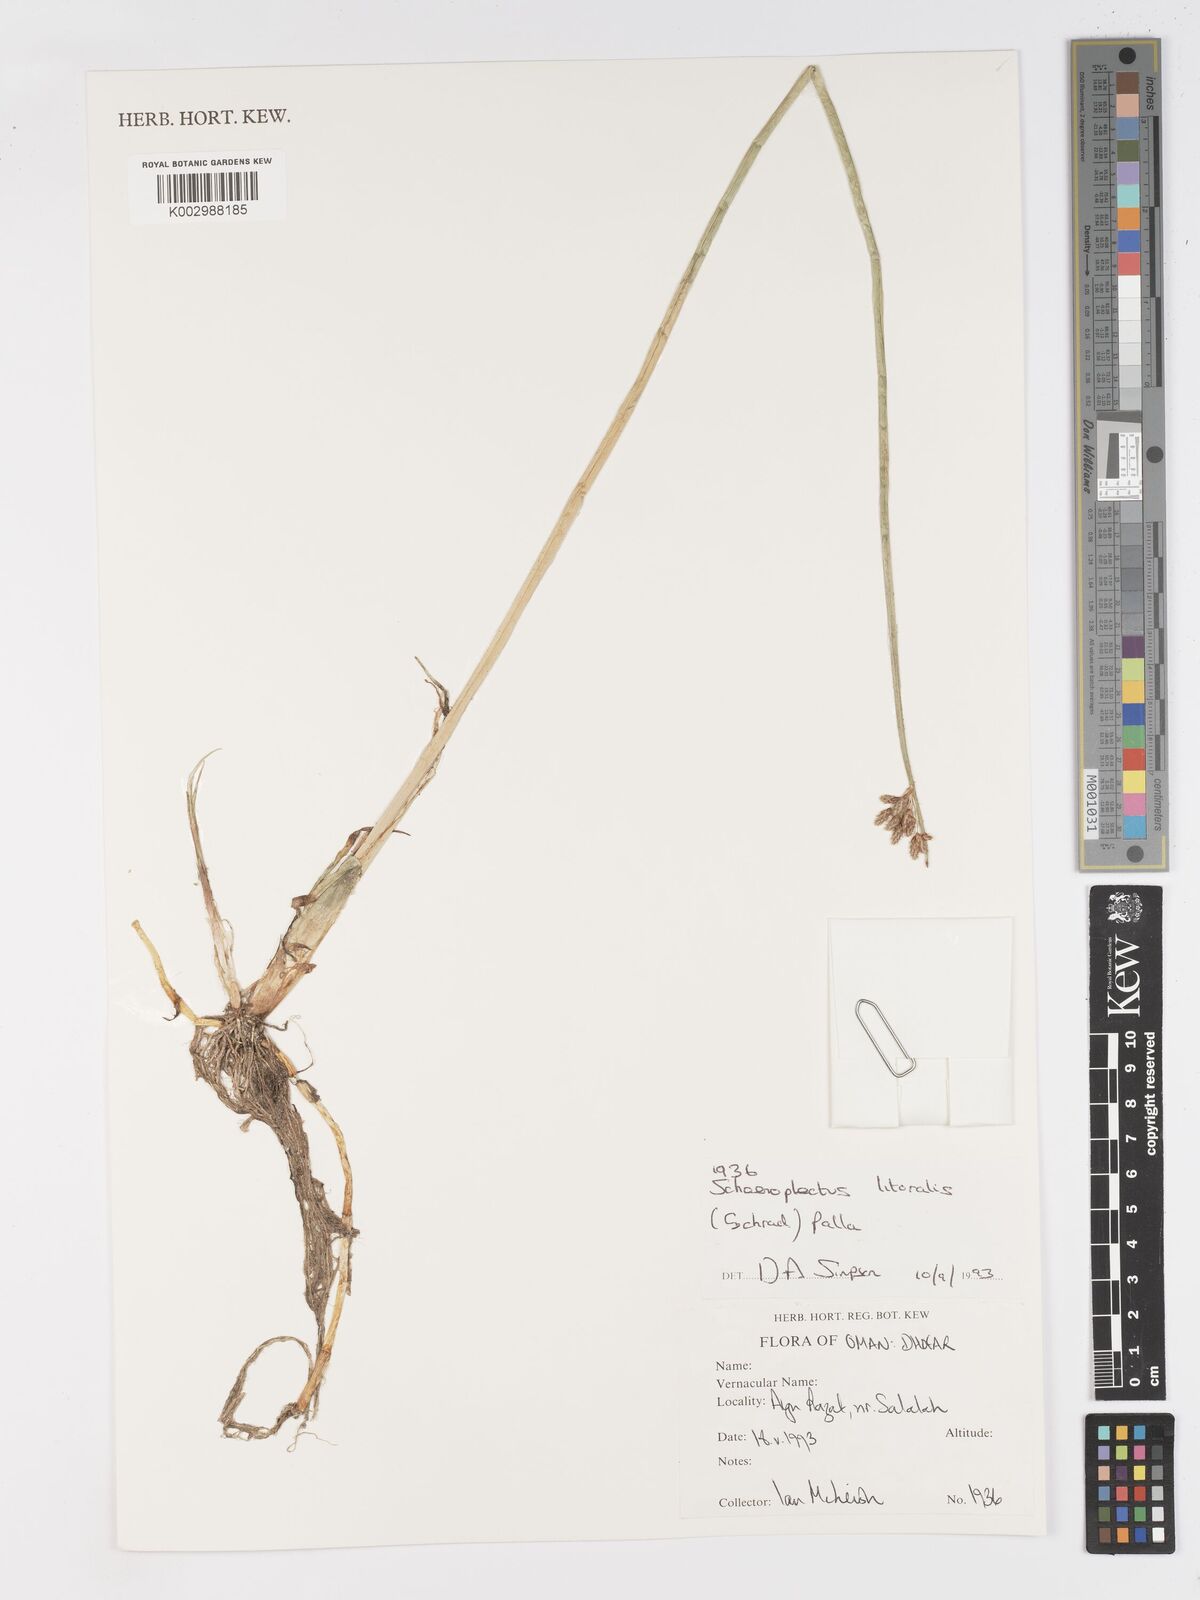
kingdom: Plantae
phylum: Tracheophyta
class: Liliopsida
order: Poales
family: Cyperaceae
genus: Schoenoplectus
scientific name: Schoenoplectus litoralis
